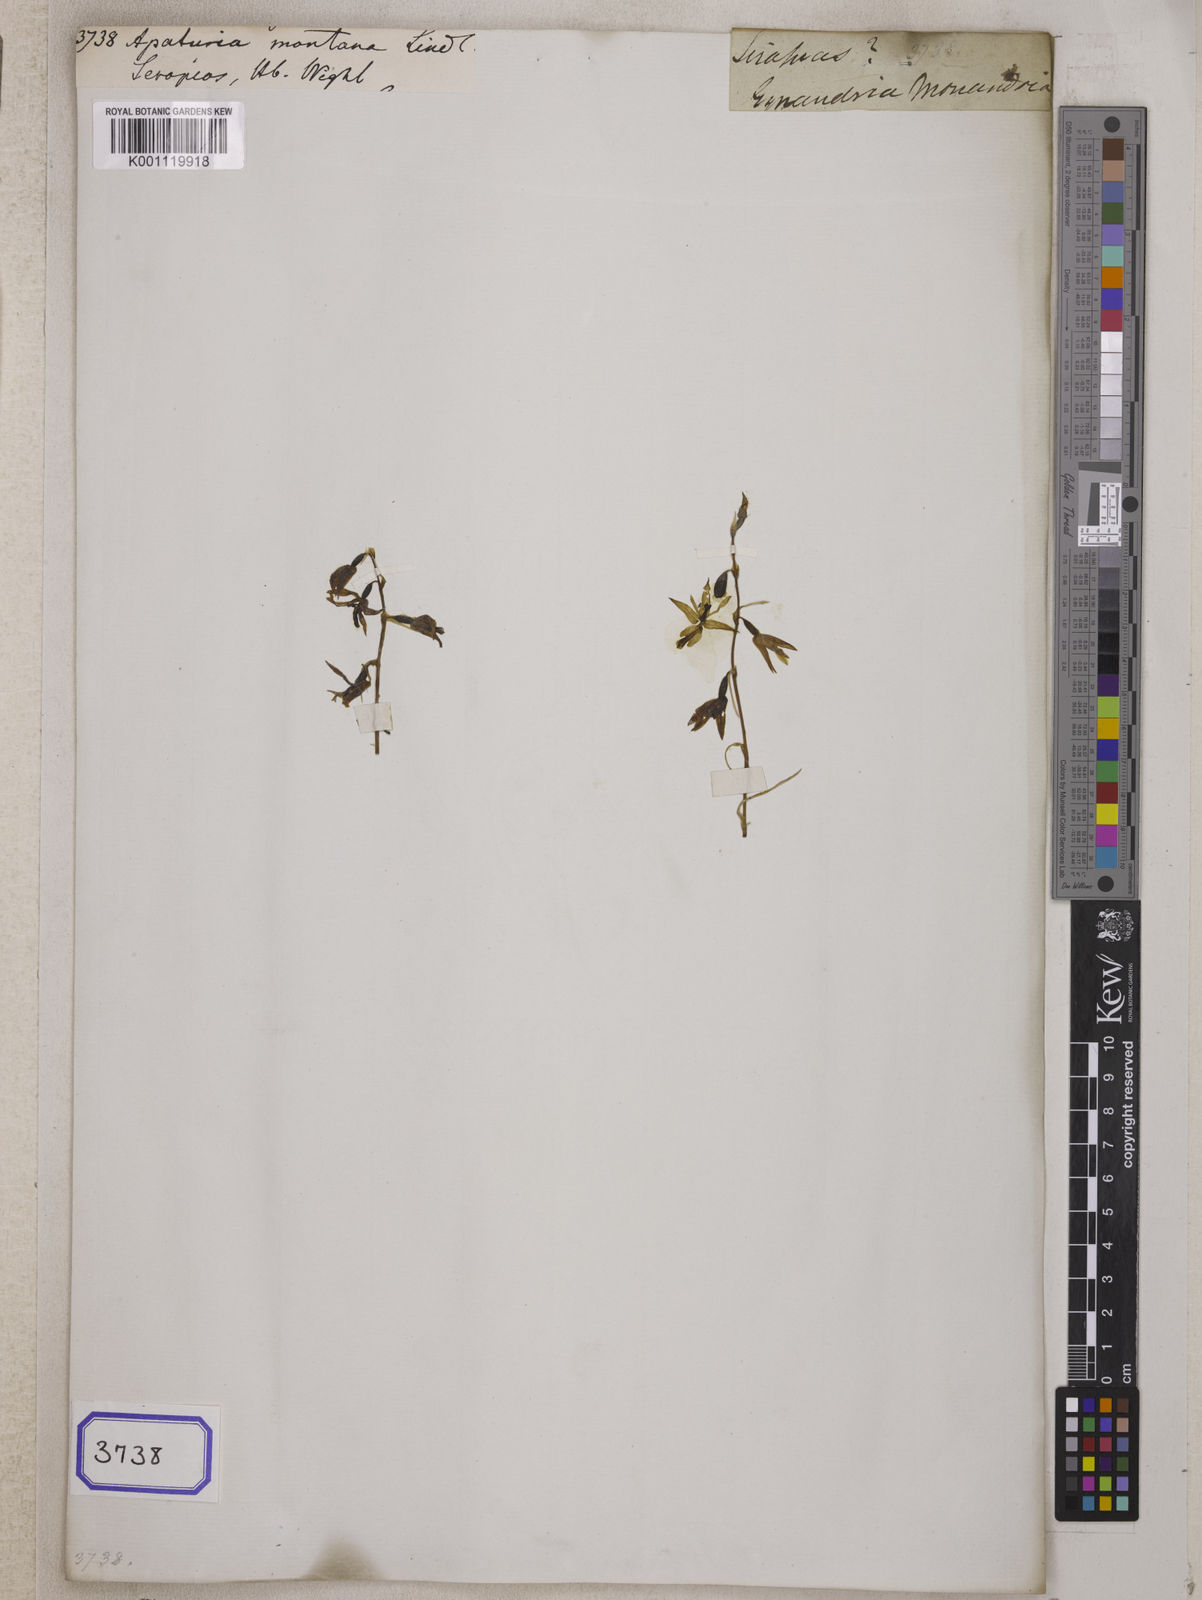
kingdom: Plantae
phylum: Tracheophyta
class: Liliopsida
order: Asparagales
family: Orchidaceae
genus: Pachystoma
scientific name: Pachystoma pubescens
